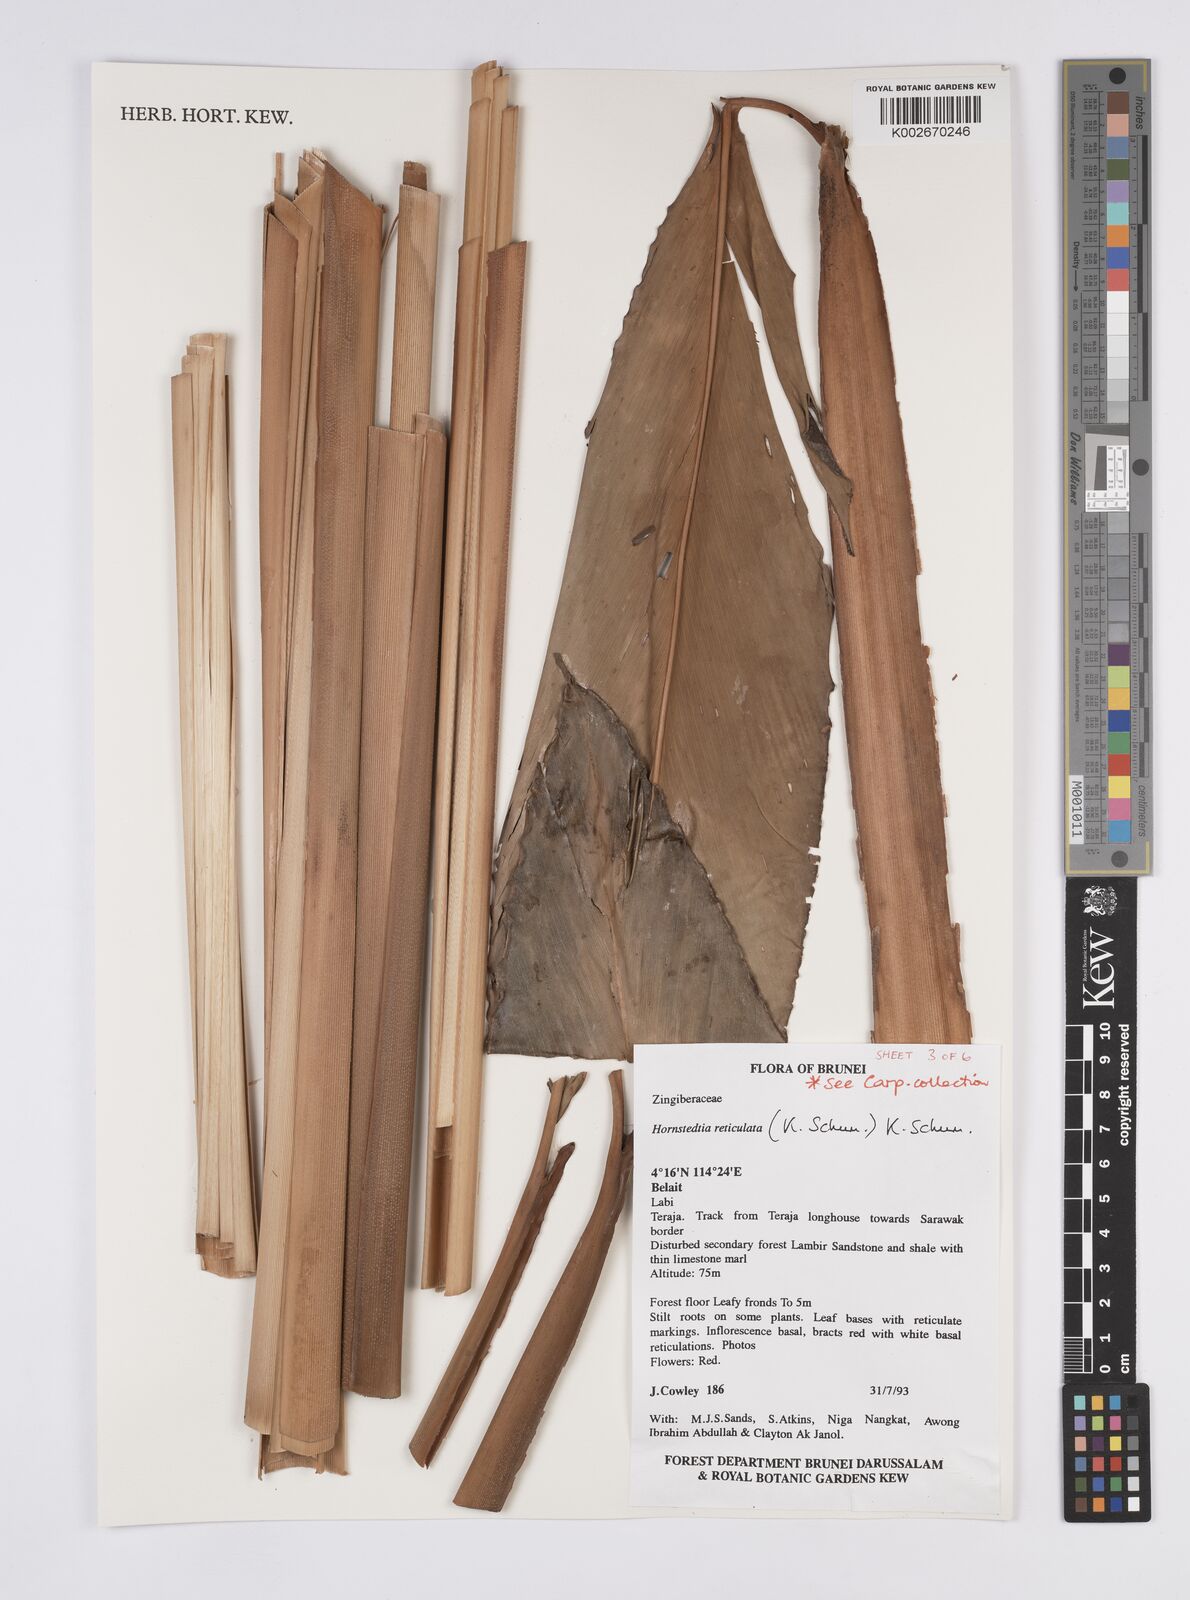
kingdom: Plantae
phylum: Tracheophyta
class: Liliopsida
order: Zingiberales
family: Zingiberaceae
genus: Hornstedtia
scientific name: Hornstedtia reticulata
